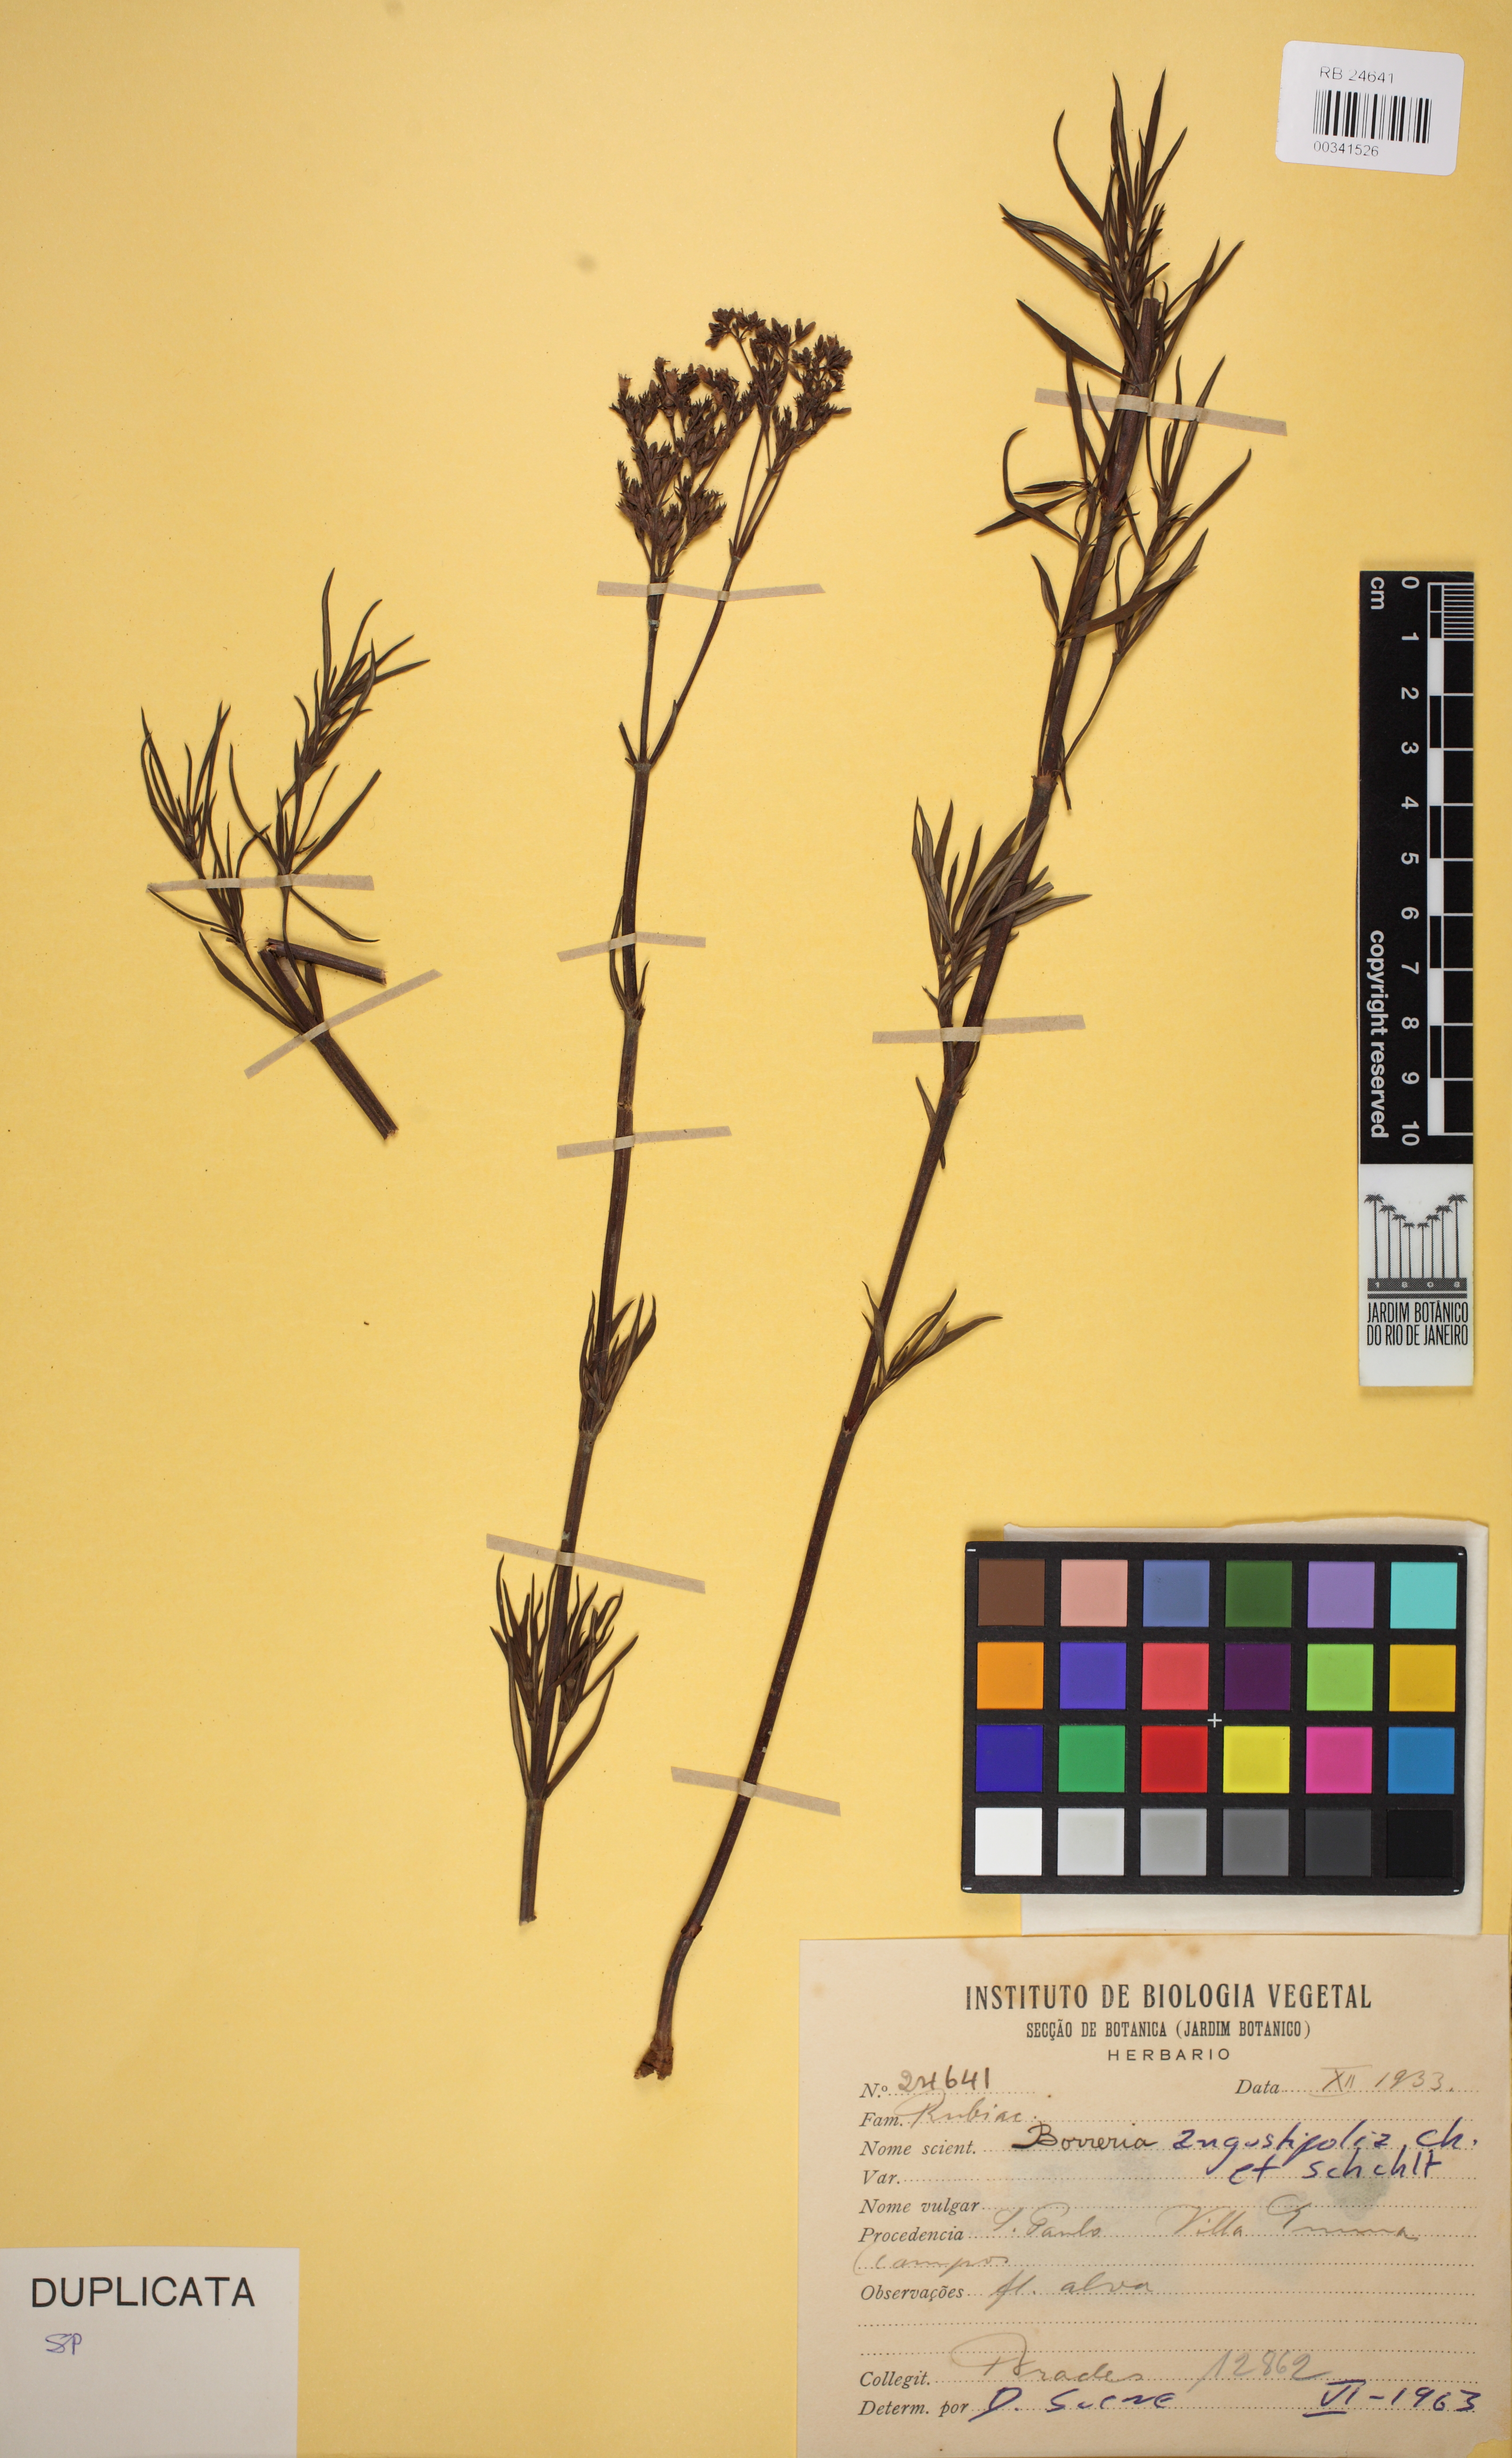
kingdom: Plantae
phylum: Tracheophyta
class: Magnoliopsida
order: Gentianales
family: Rubiaceae
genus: Galianthe
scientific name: Galianthe angustifolia
